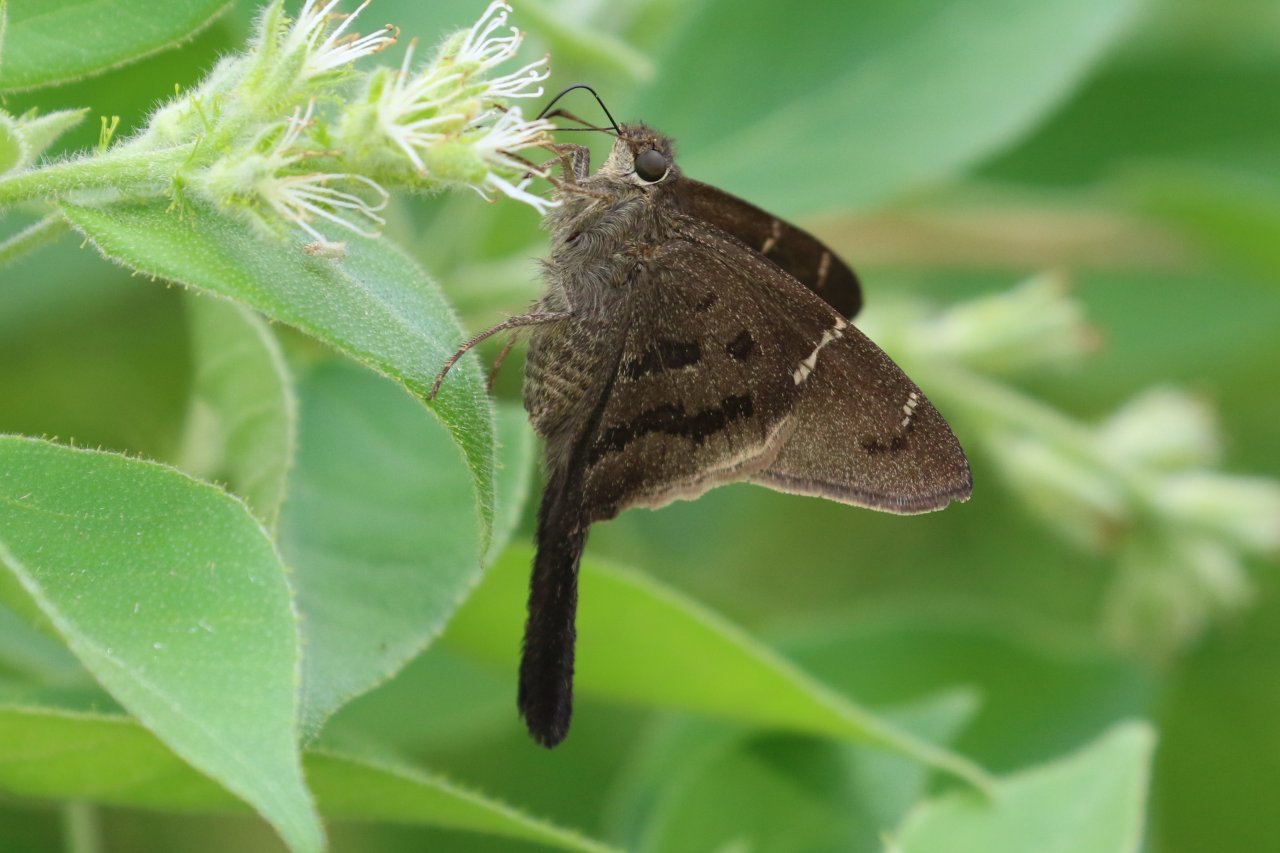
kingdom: Animalia
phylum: Arthropoda
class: Insecta
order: Lepidoptera
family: Hesperiidae
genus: Urbanus
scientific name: Urbanus procne
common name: Brown Longtail
